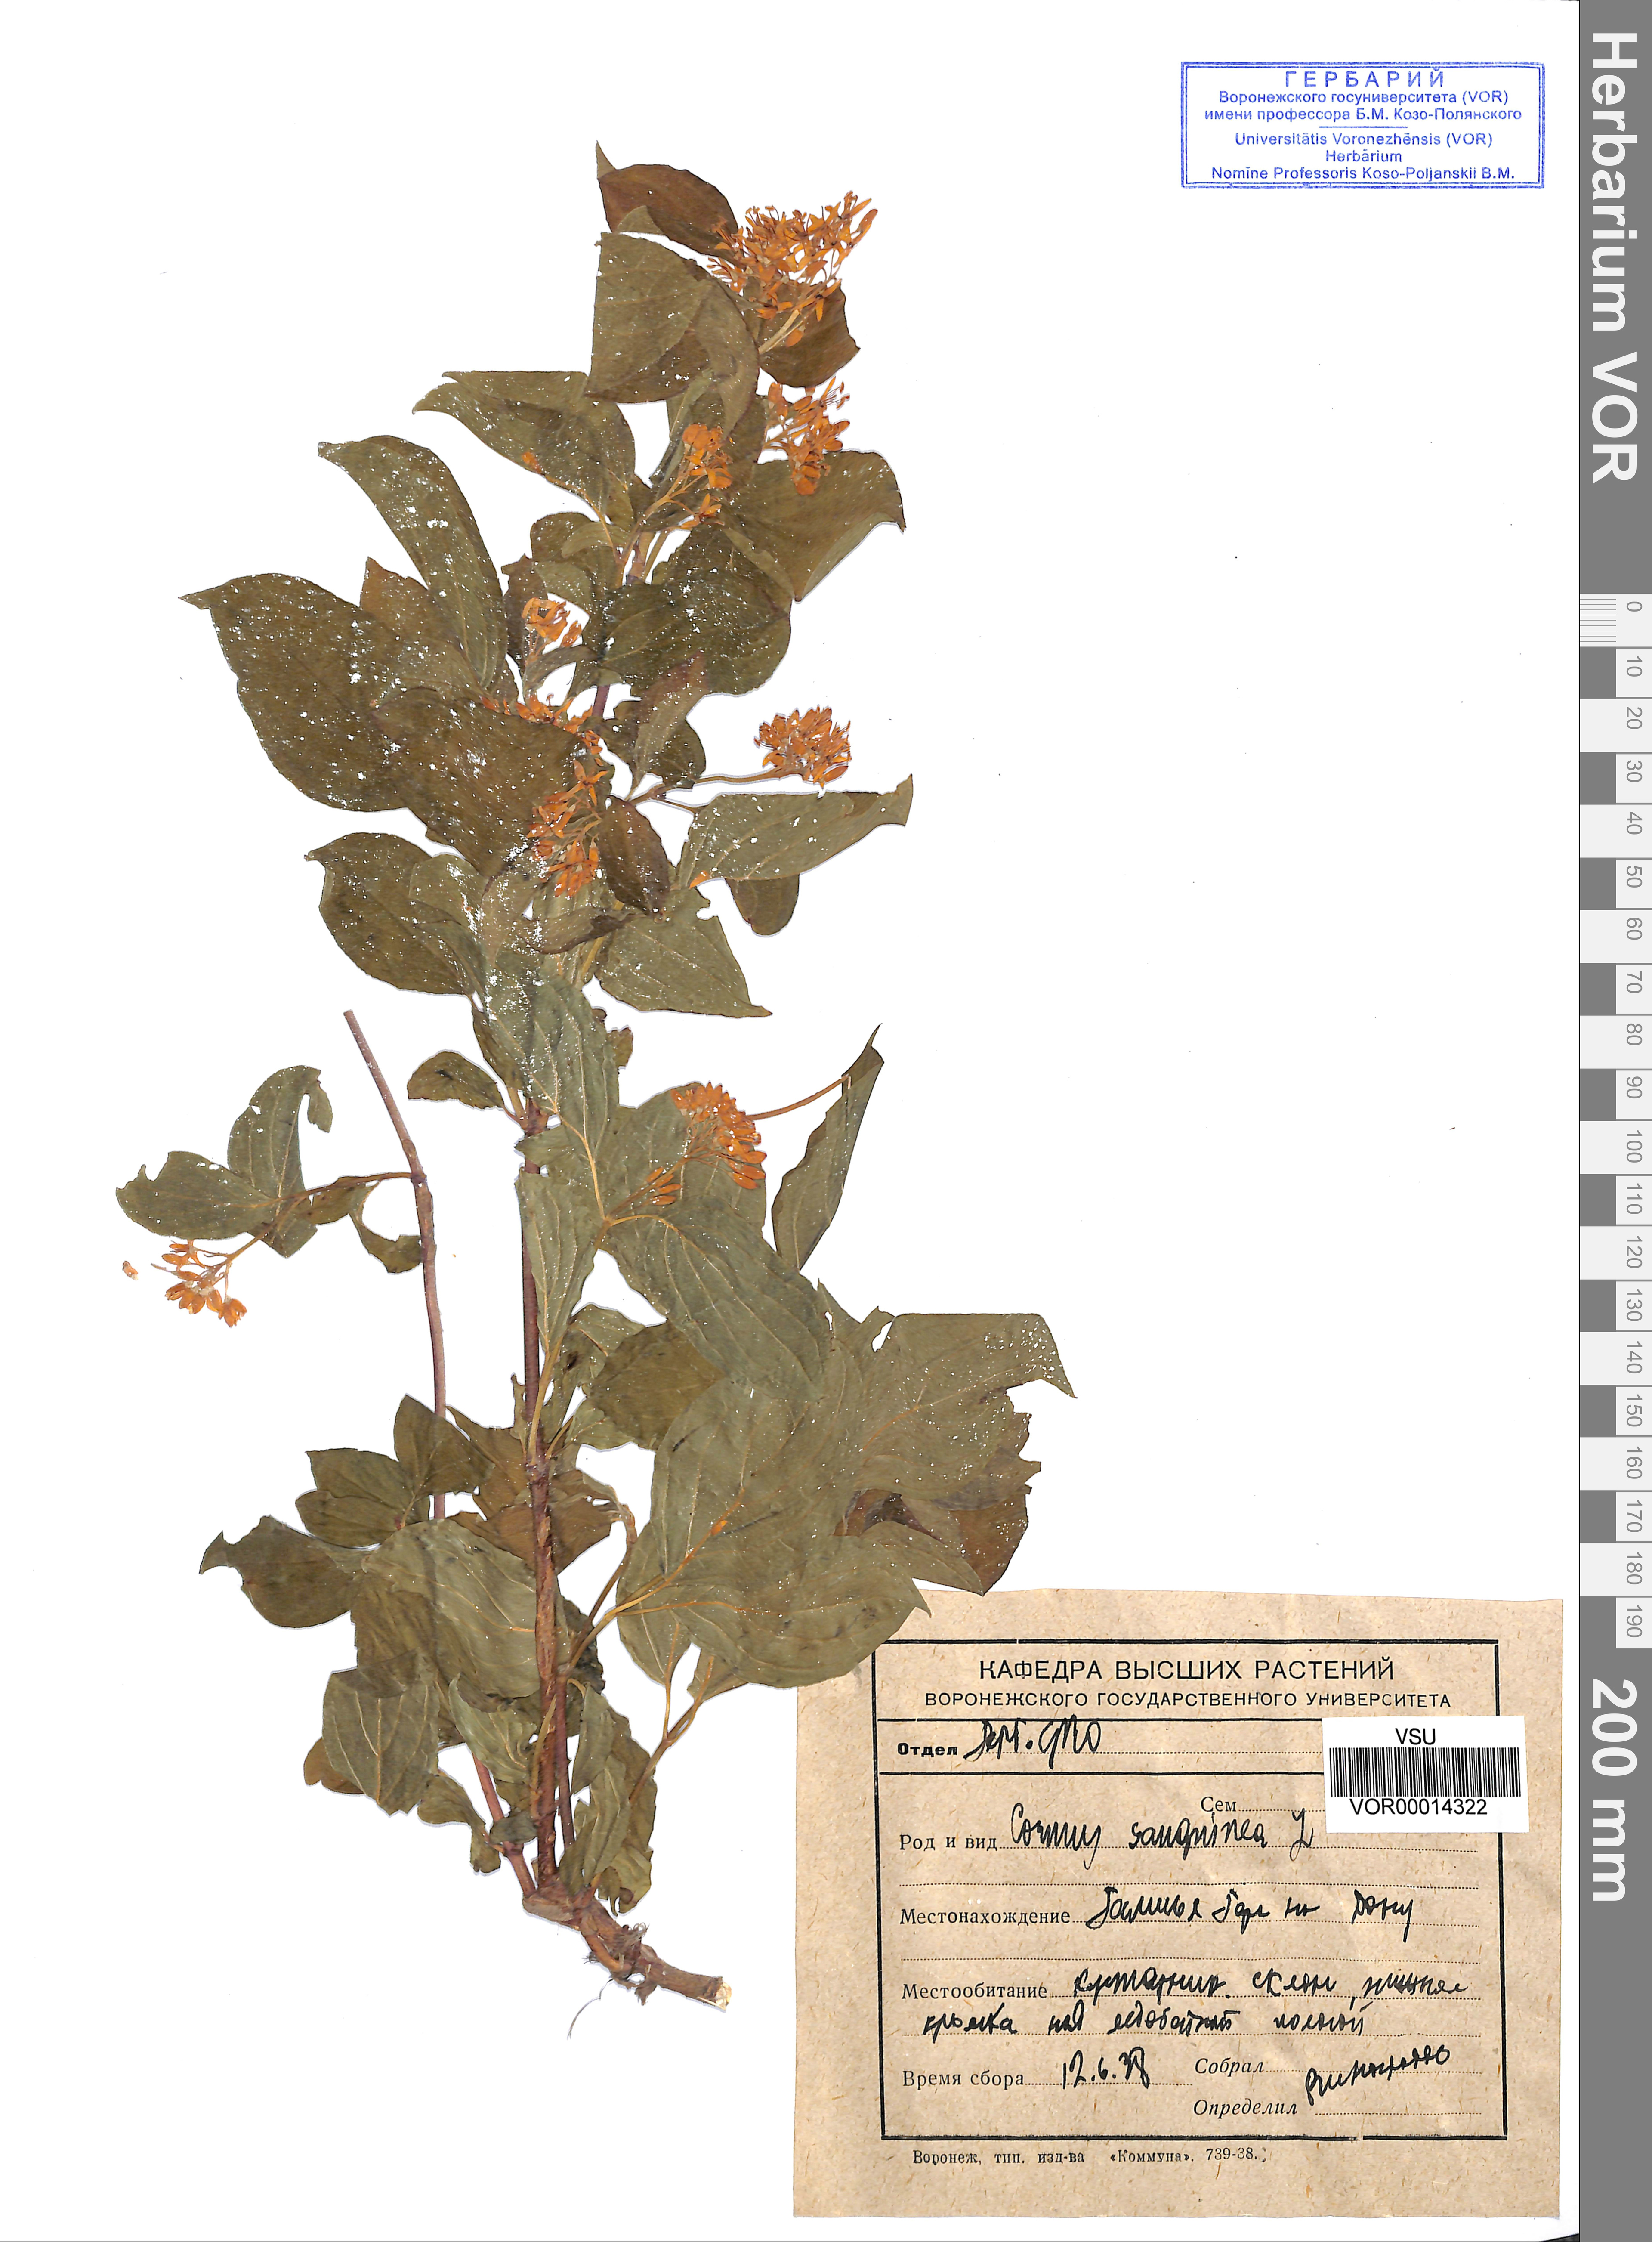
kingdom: Plantae
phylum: Tracheophyta
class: Magnoliopsida
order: Cornales
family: Cornaceae
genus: Cornus
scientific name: Cornus sanguinea
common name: Dogwood
